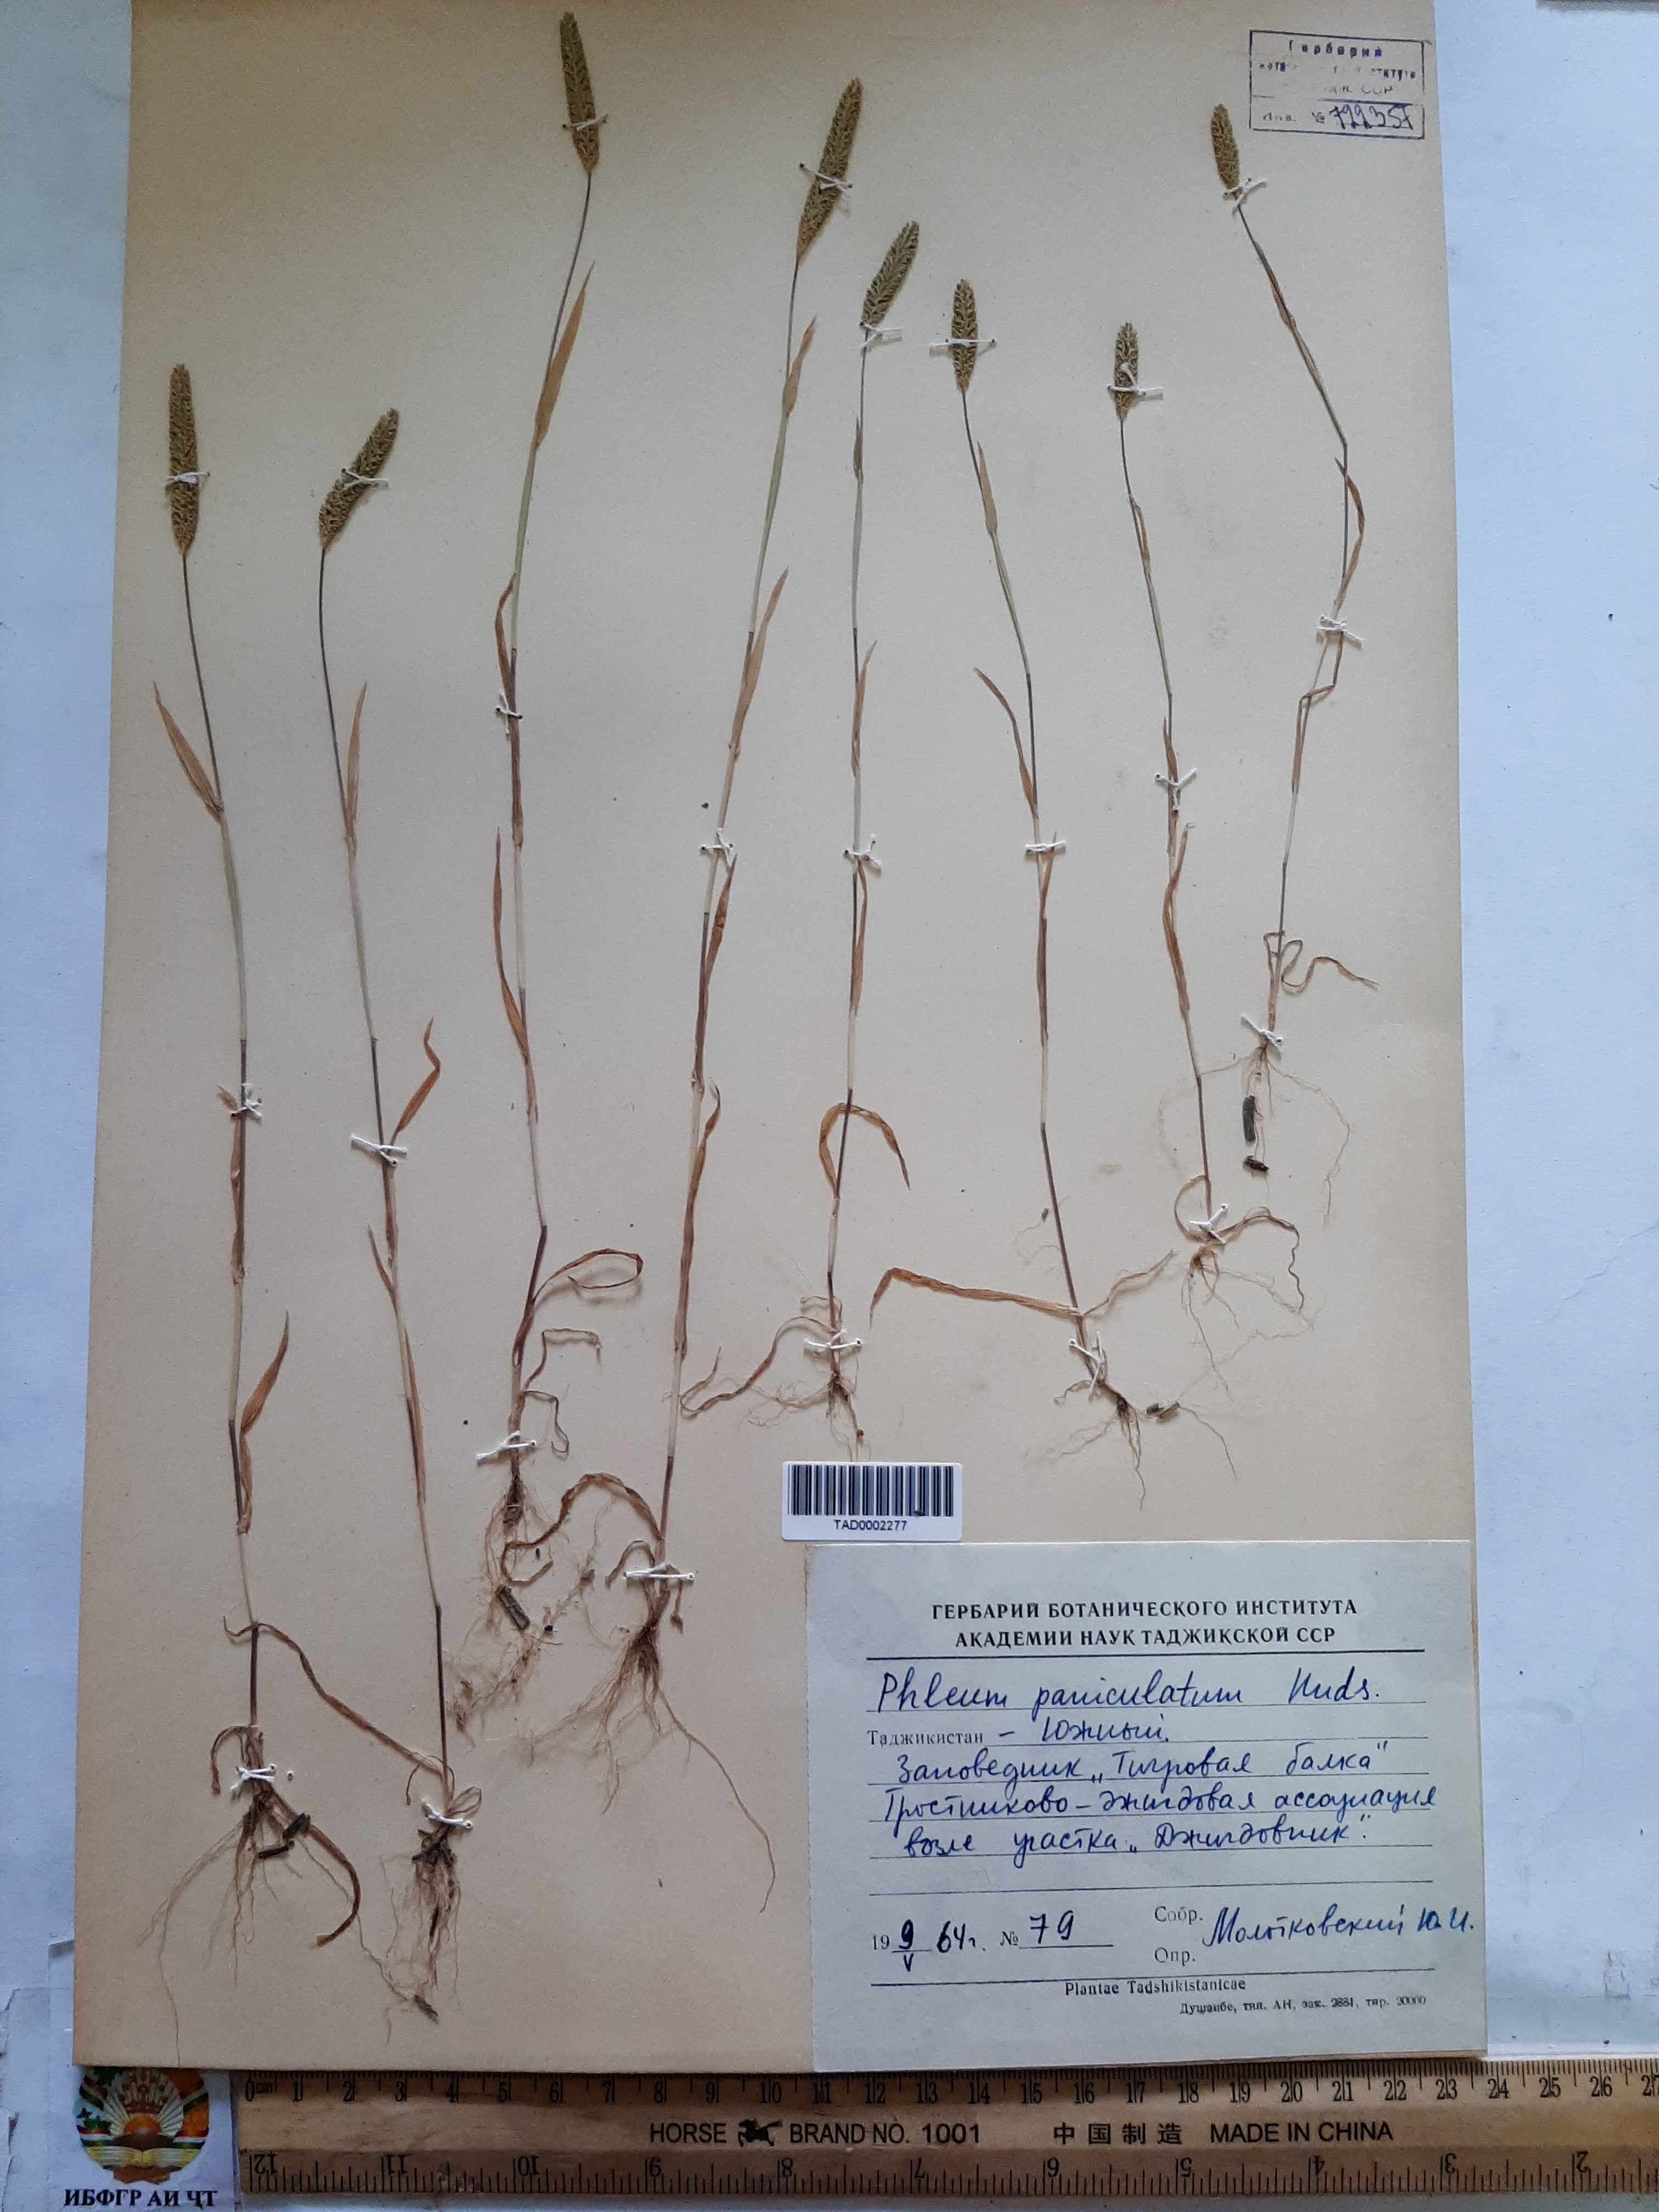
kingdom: Plantae
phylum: Tracheophyta
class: Liliopsida
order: Poales
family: Poaceae
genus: Phleum
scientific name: Phleum paniculatum
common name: British timothy
